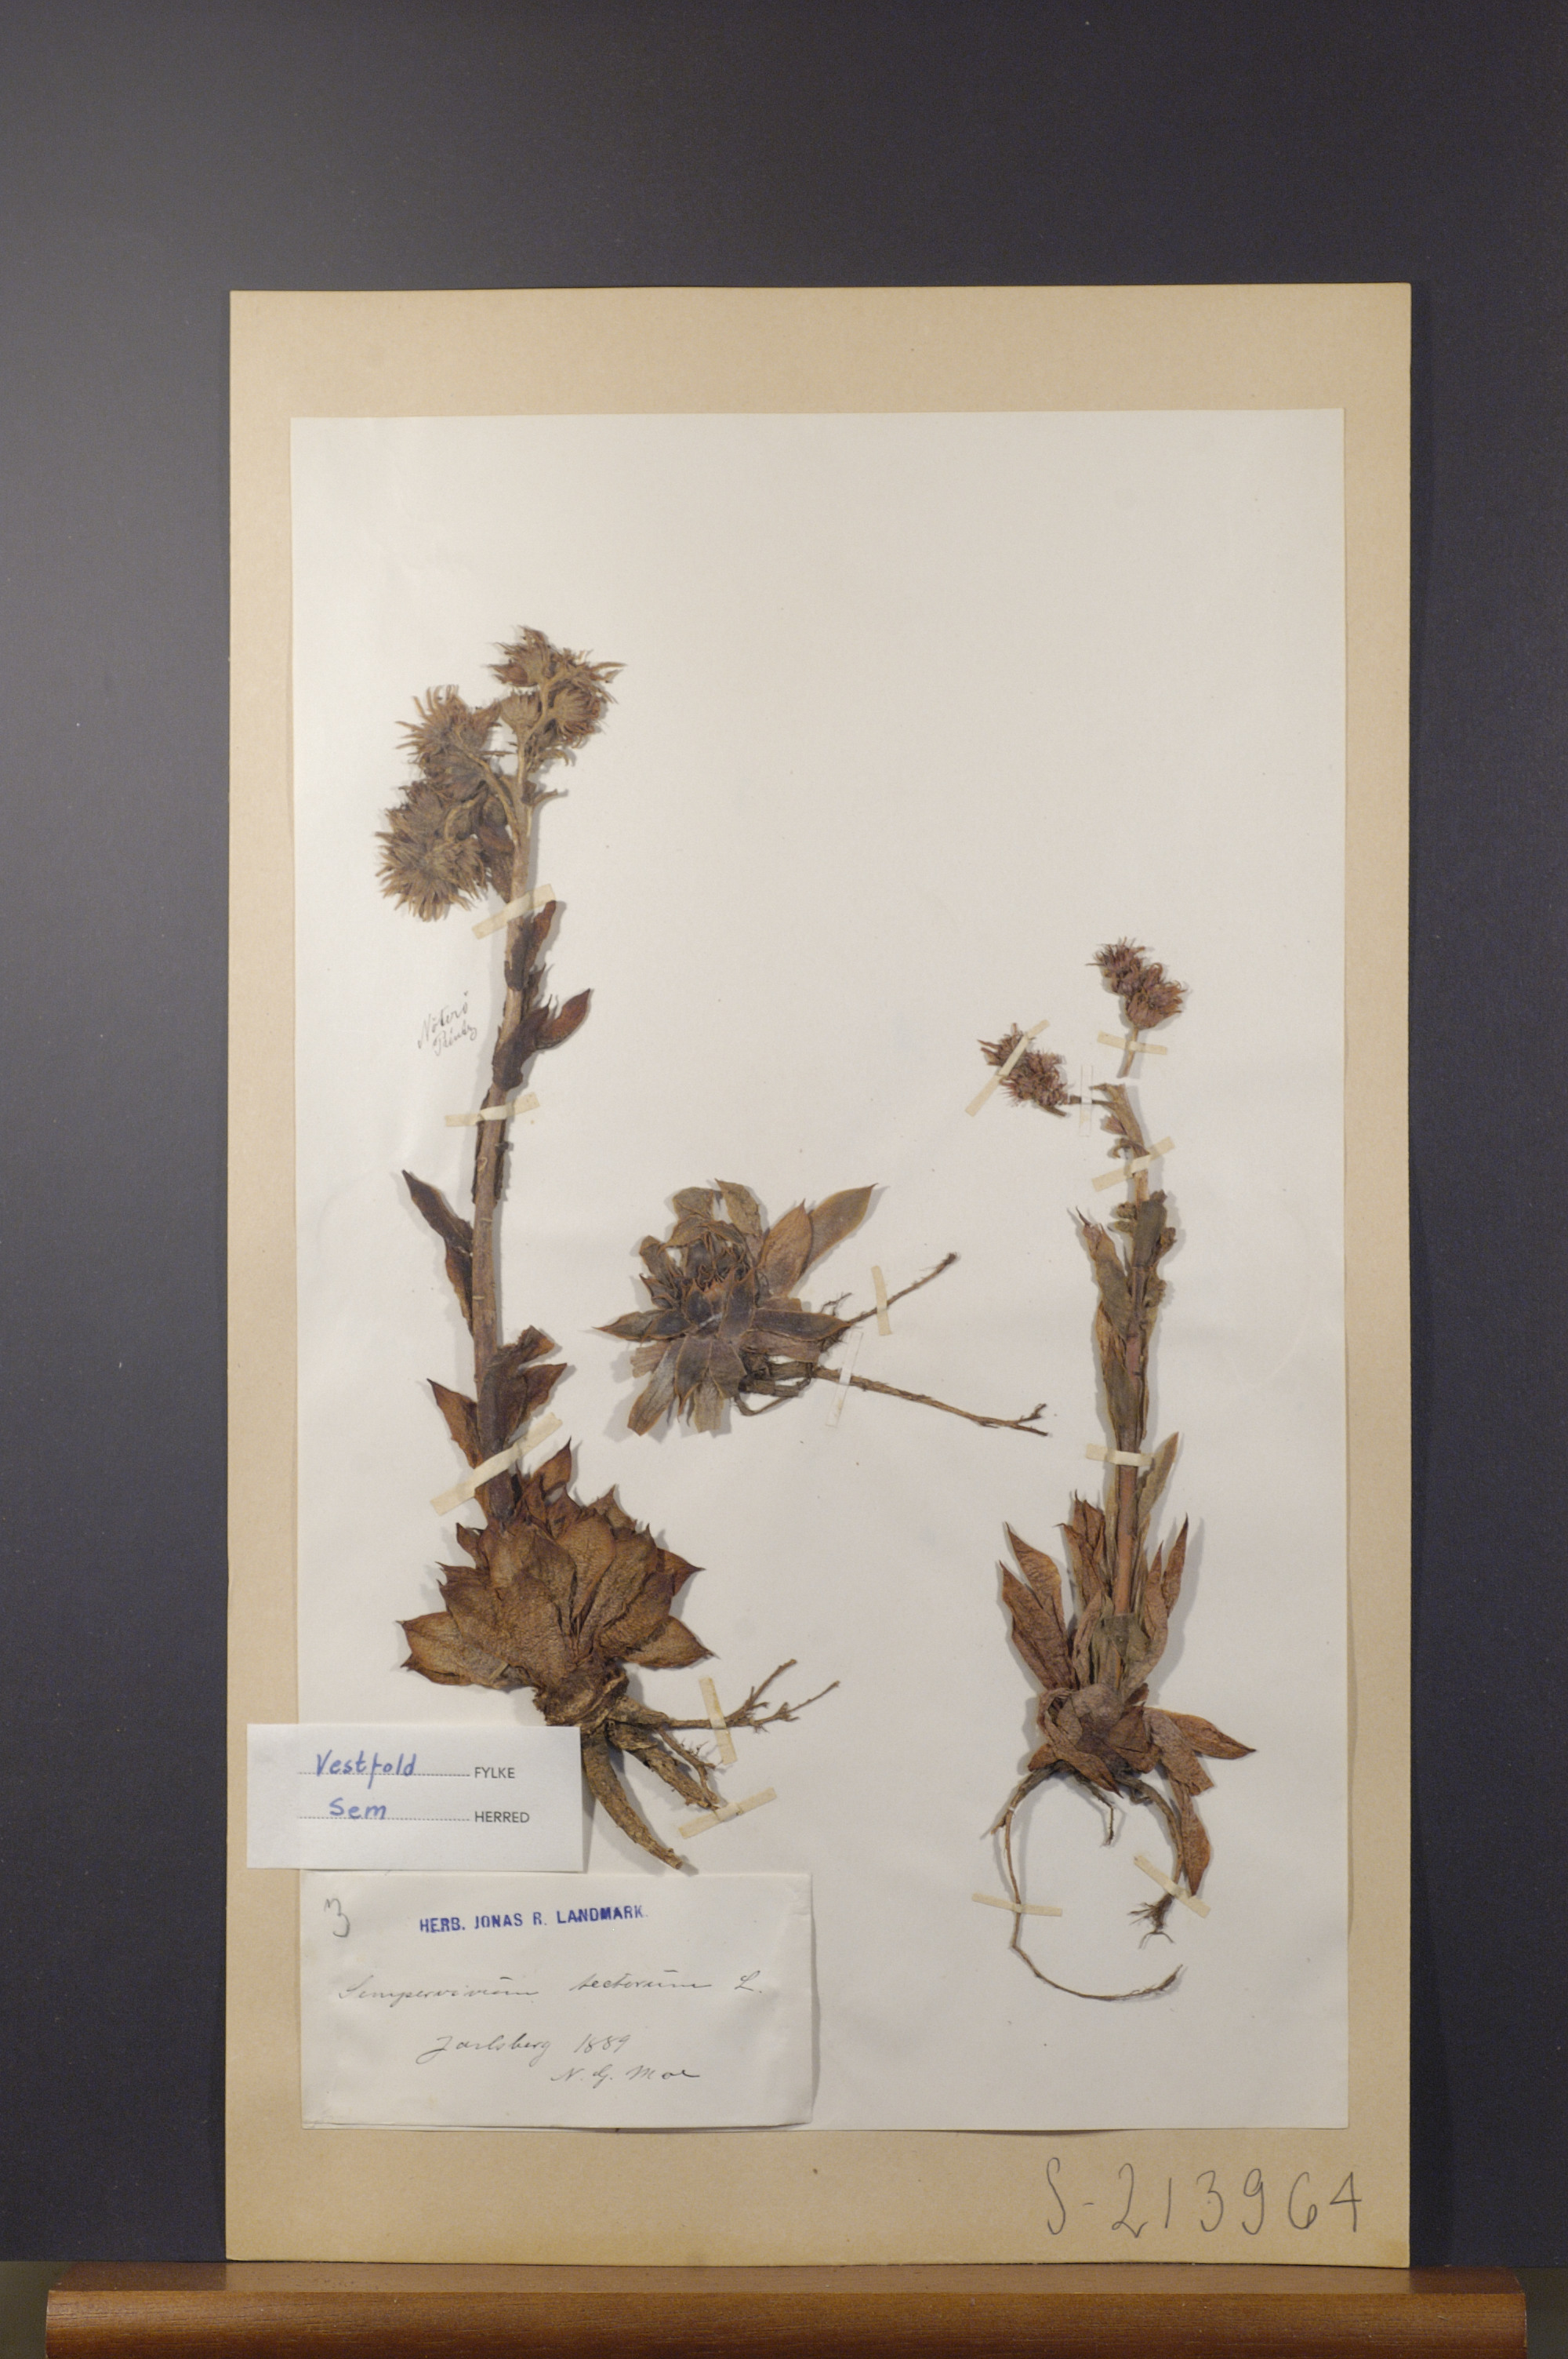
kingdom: Plantae
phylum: Tracheophyta
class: Magnoliopsida
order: Saxifragales
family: Crassulaceae
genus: Sempervivum
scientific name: Sempervivum tectorum
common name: House-leek
